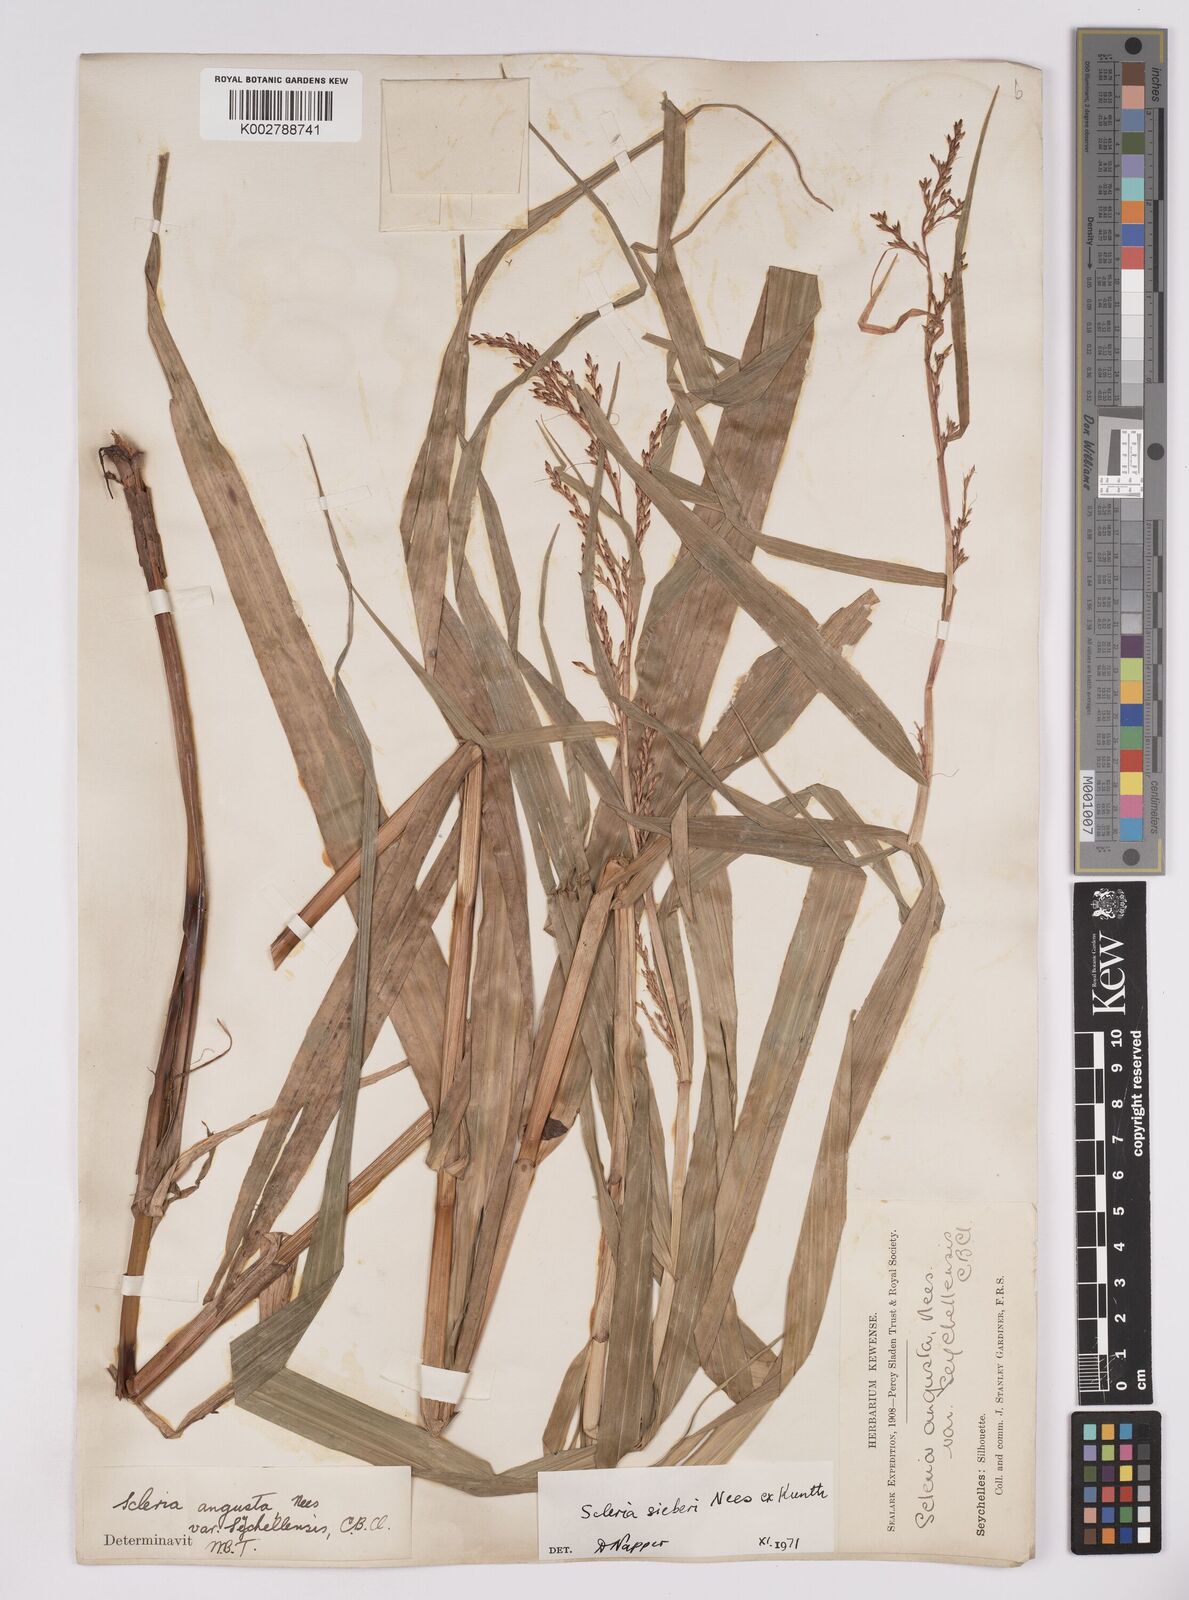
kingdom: Plantae
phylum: Tracheophyta
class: Liliopsida
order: Poales
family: Cyperaceae
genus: Scleria
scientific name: Scleria gaertneri
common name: Cortadera blanca
